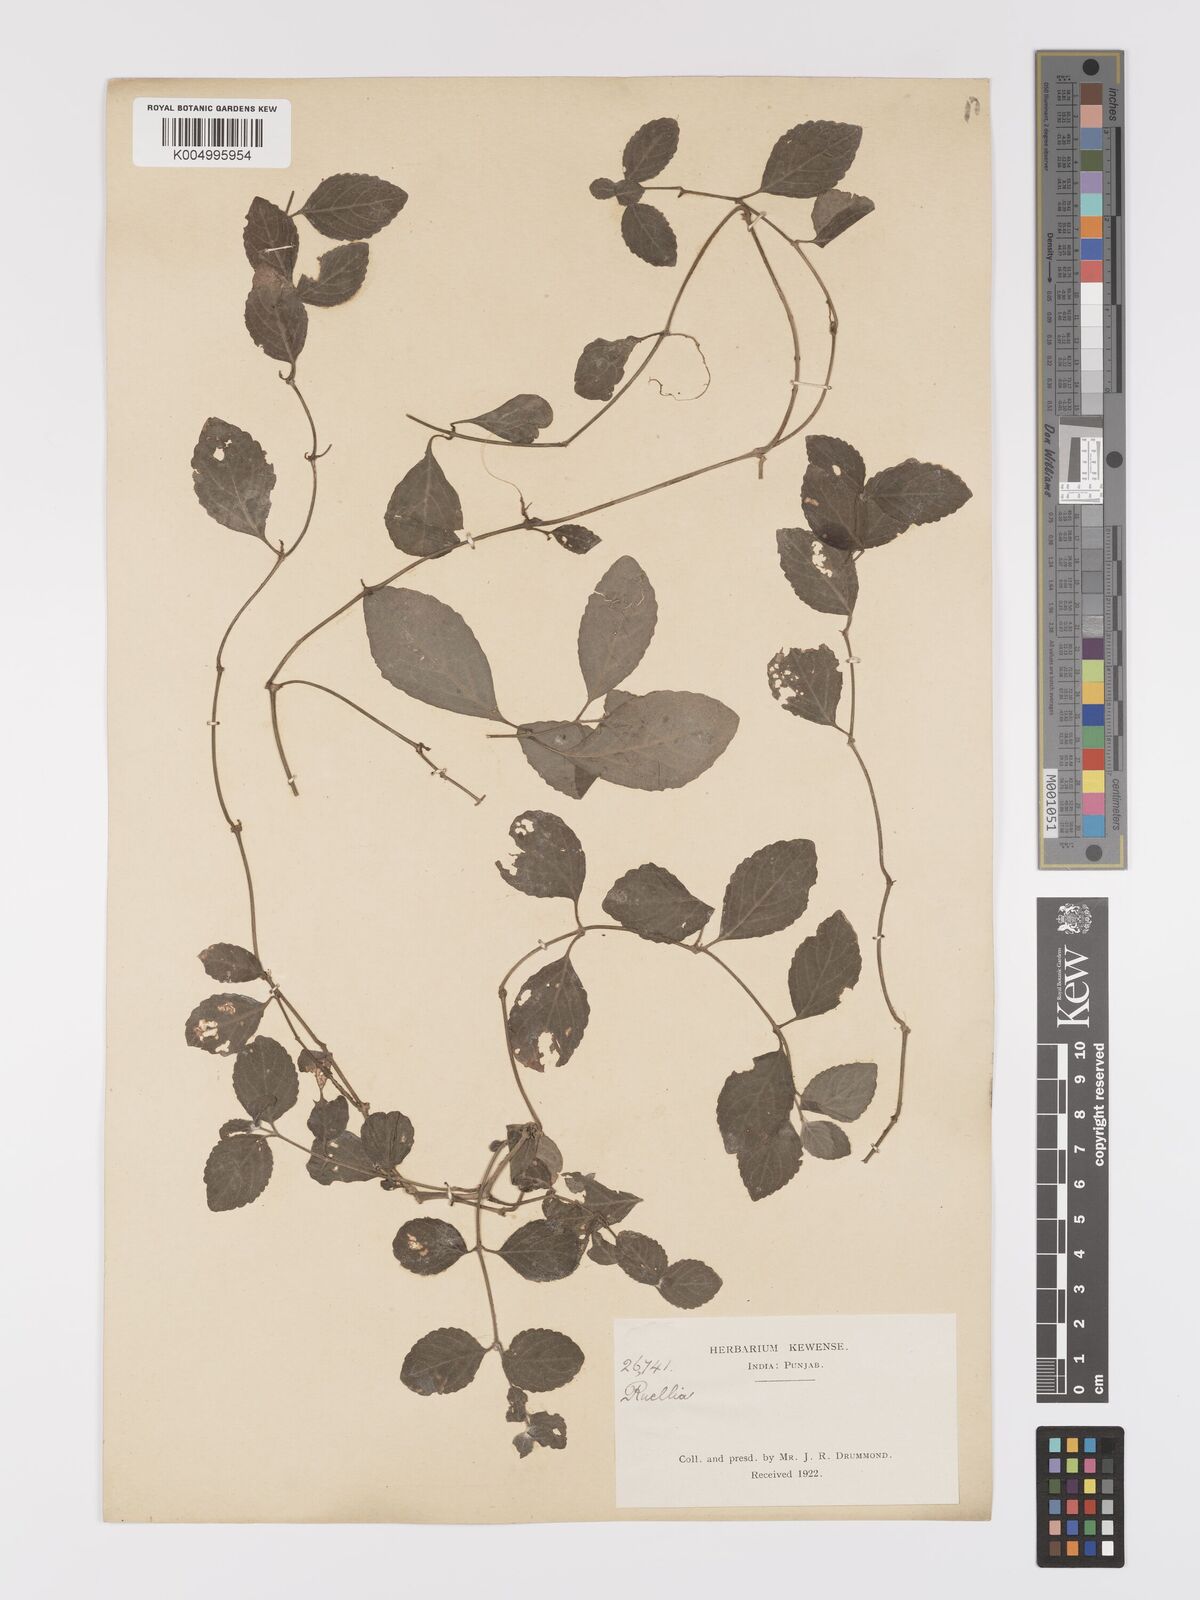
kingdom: Plantae
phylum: Tracheophyta
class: Magnoliopsida
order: Lamiales
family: Acanthaceae
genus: Ruellia
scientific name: Ruellia
